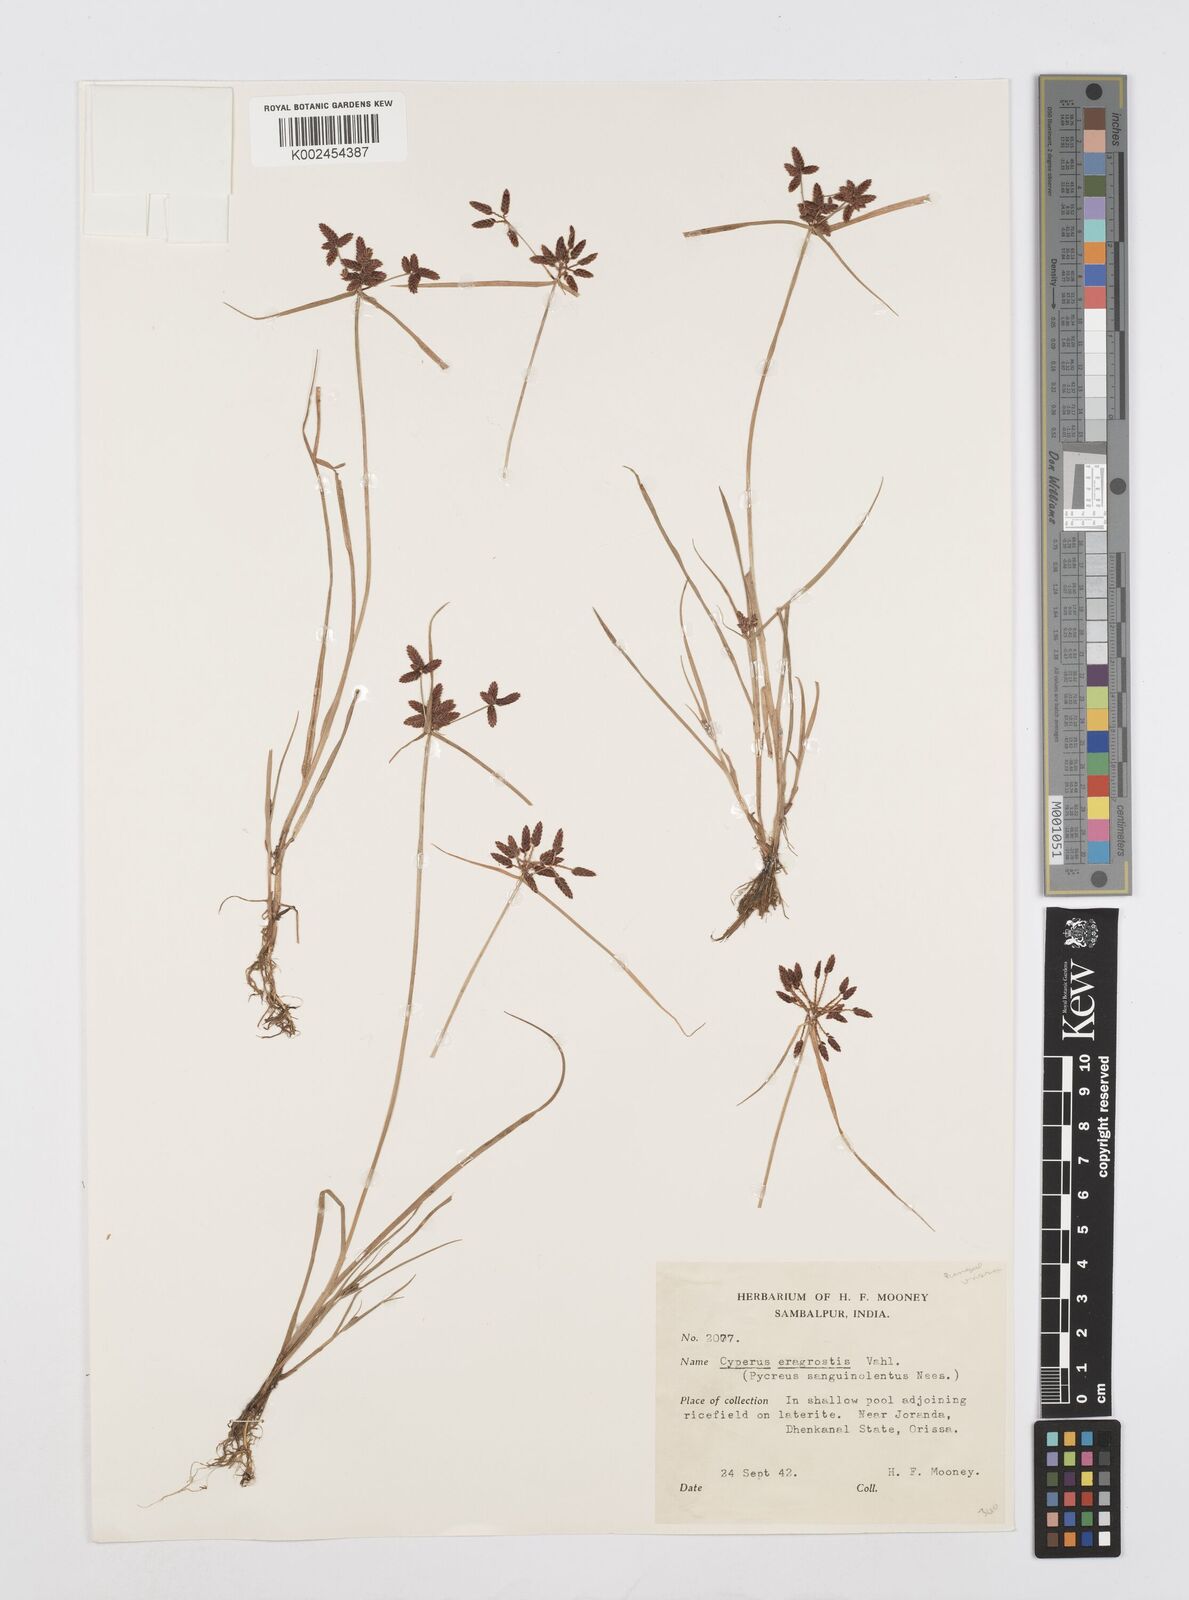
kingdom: Plantae
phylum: Tracheophyta
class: Liliopsida
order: Poales
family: Cyperaceae
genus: Cyperus
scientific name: Cyperus sanguinolentus
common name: Purpleglume flatsedge
